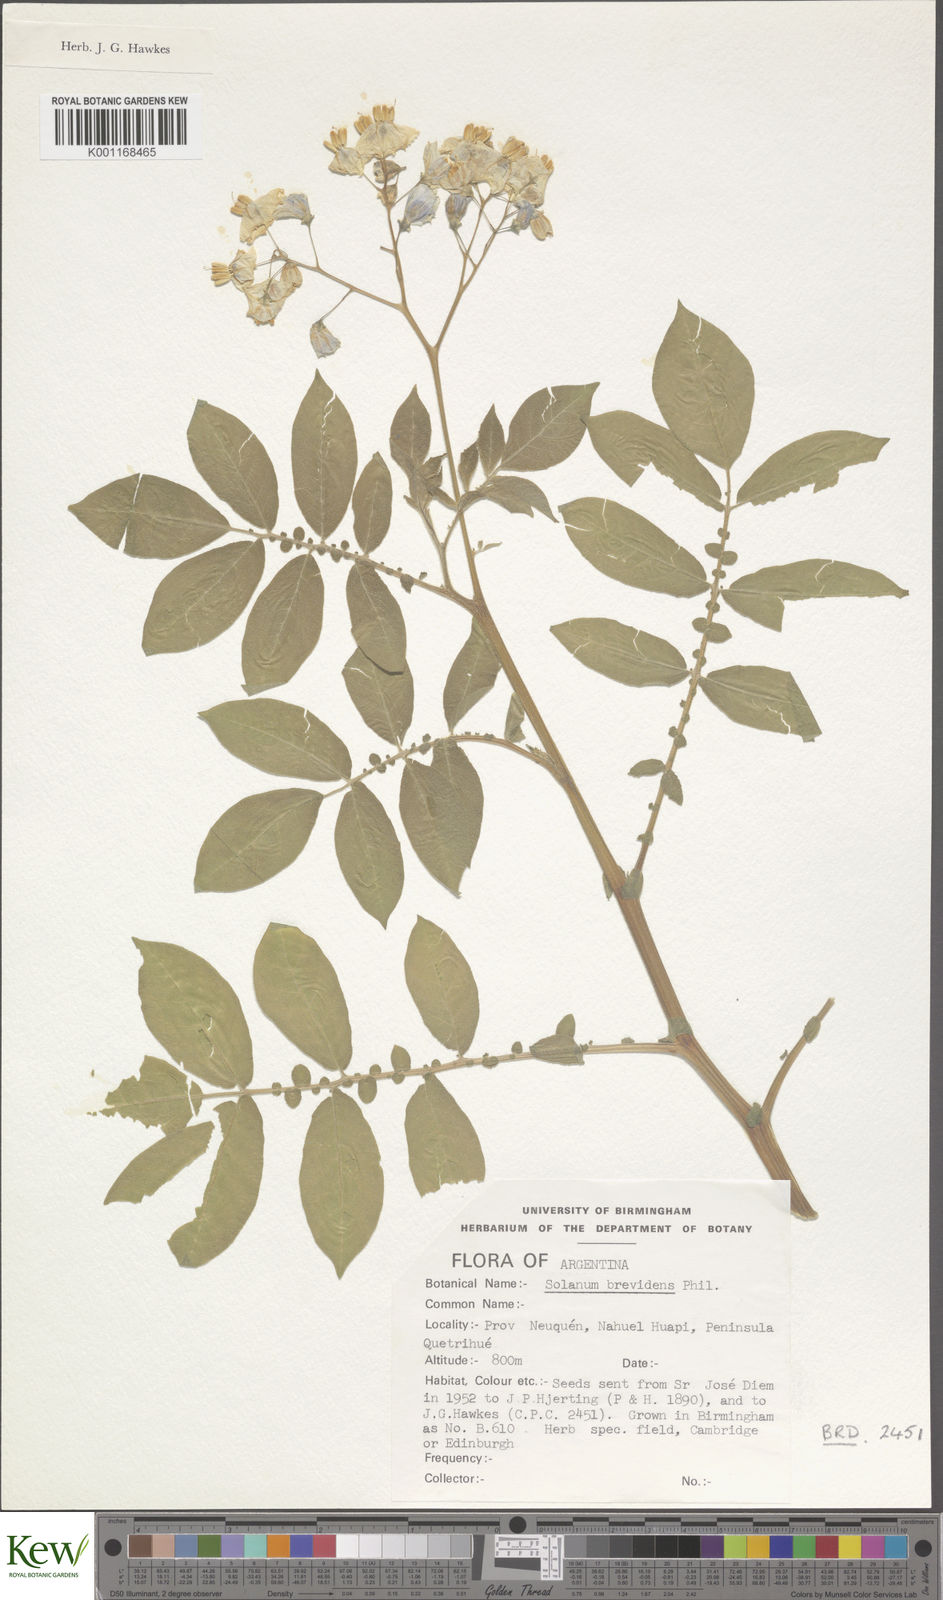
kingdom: Plantae
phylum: Tracheophyta
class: Magnoliopsida
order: Solanales
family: Solanaceae
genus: Solanum
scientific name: Solanum palustre
